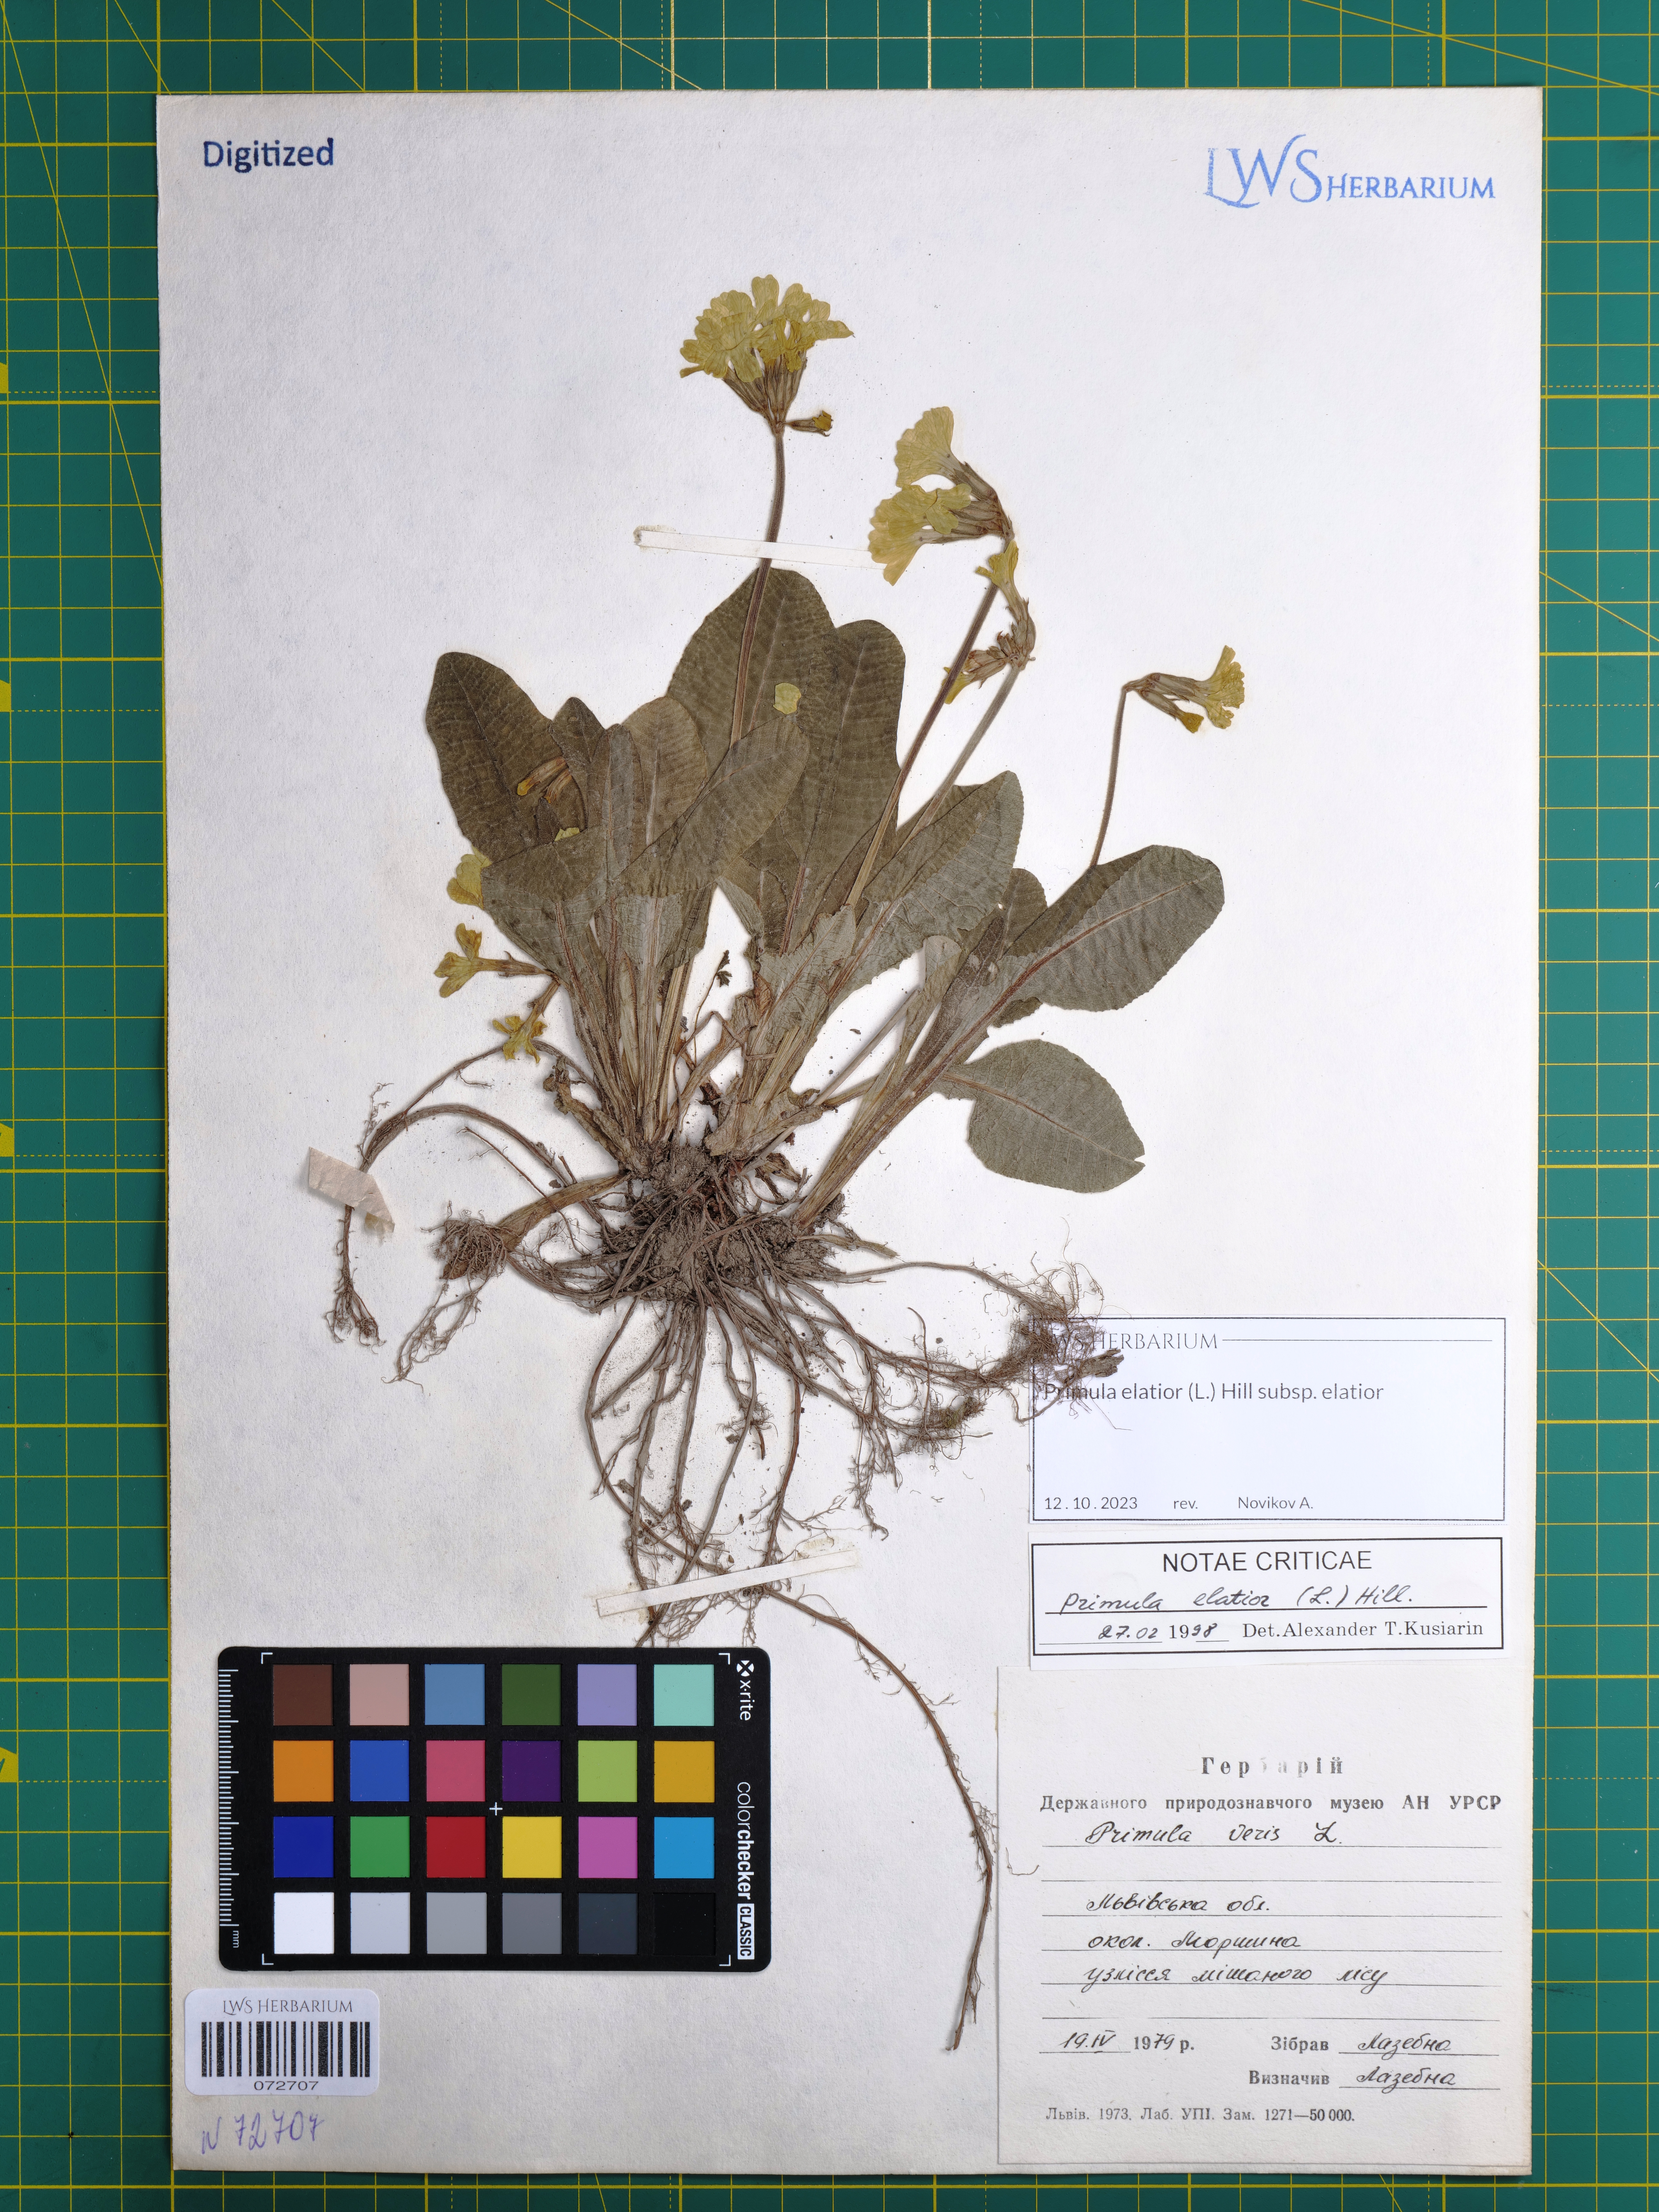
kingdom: Plantae
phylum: Tracheophyta
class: Magnoliopsida
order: Ericales
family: Primulaceae
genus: Primula
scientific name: Primula elatior
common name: Oxlip
